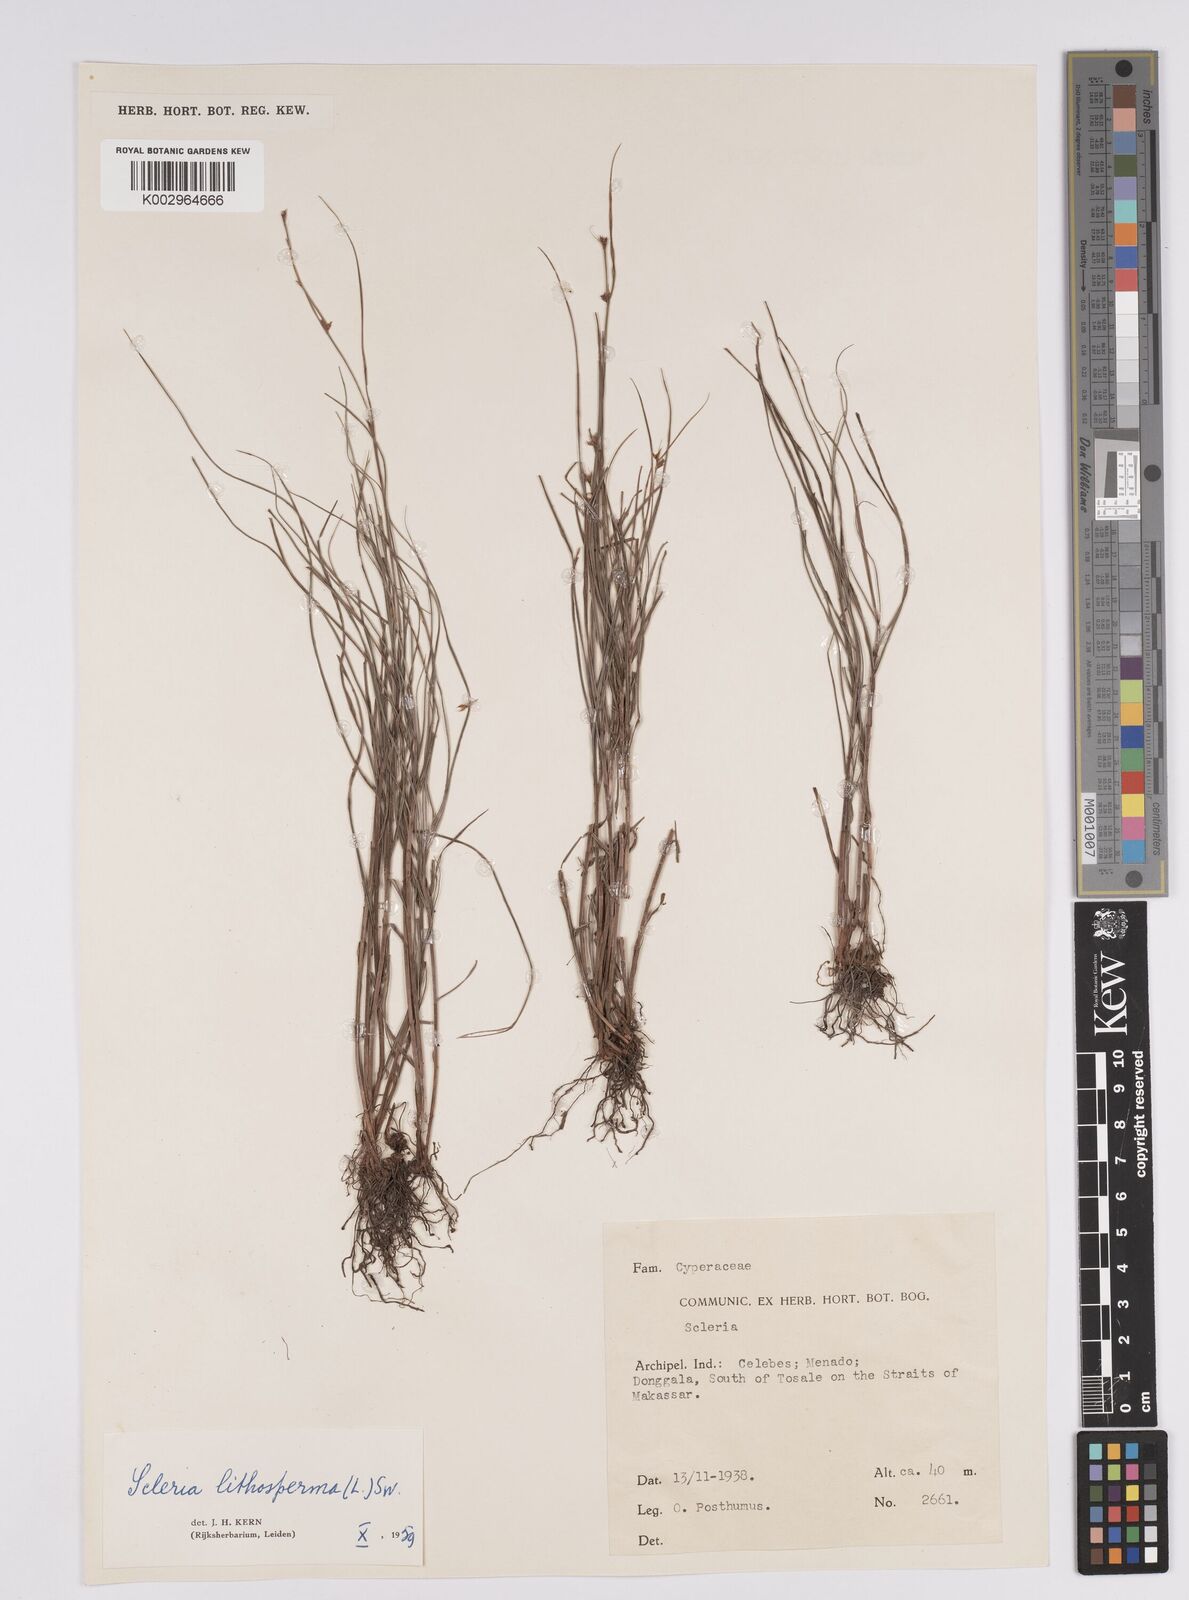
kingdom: Plantae
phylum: Tracheophyta
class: Liliopsida
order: Poales
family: Cyperaceae
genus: Scleria
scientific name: Scleria lithosperma
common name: Florida keys nut-rush
